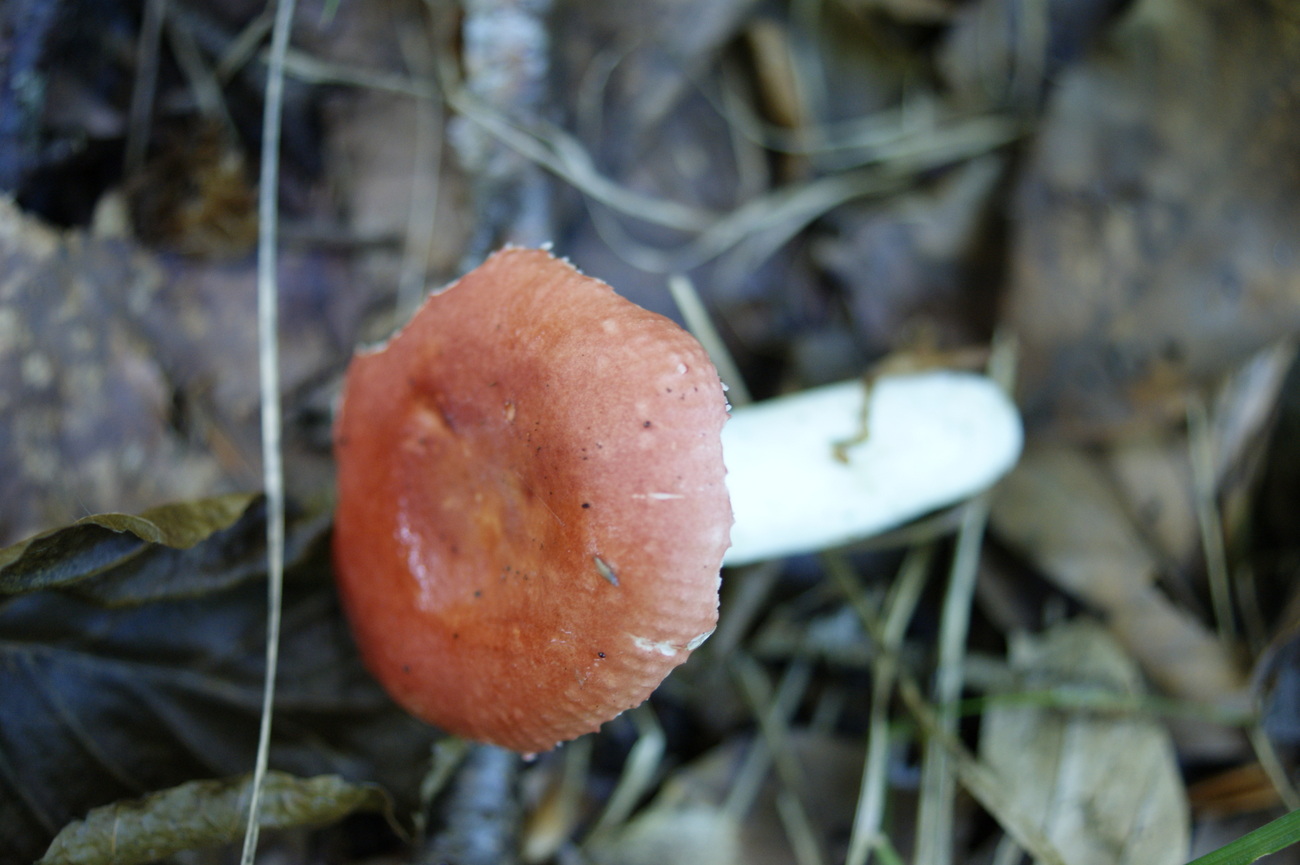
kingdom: Fungi
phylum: Basidiomycota
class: Agaricomycetes
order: Russulales
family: Russulaceae
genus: Russula
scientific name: Russula emeticicolor
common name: giftrød skørhat
